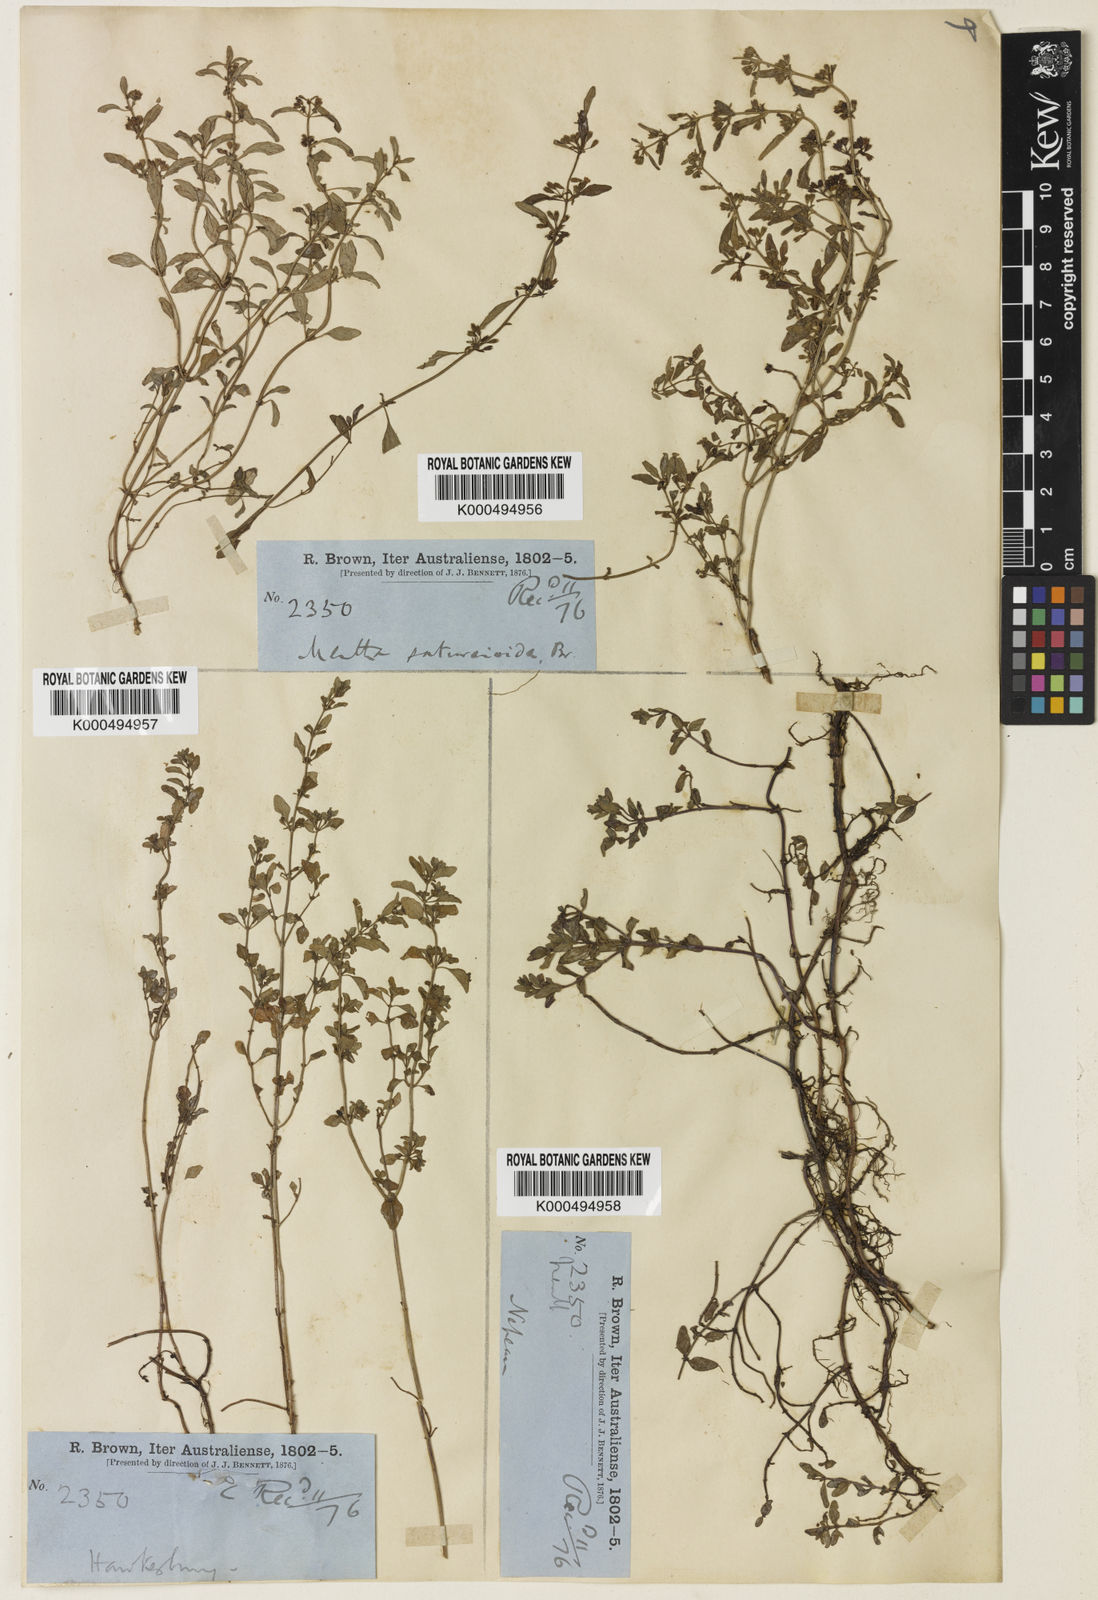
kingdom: Plantae
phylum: Tracheophyta
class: Magnoliopsida
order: Lamiales
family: Lamiaceae
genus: Mentha
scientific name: Mentha satureioides
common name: Brisbane pennyroyal
